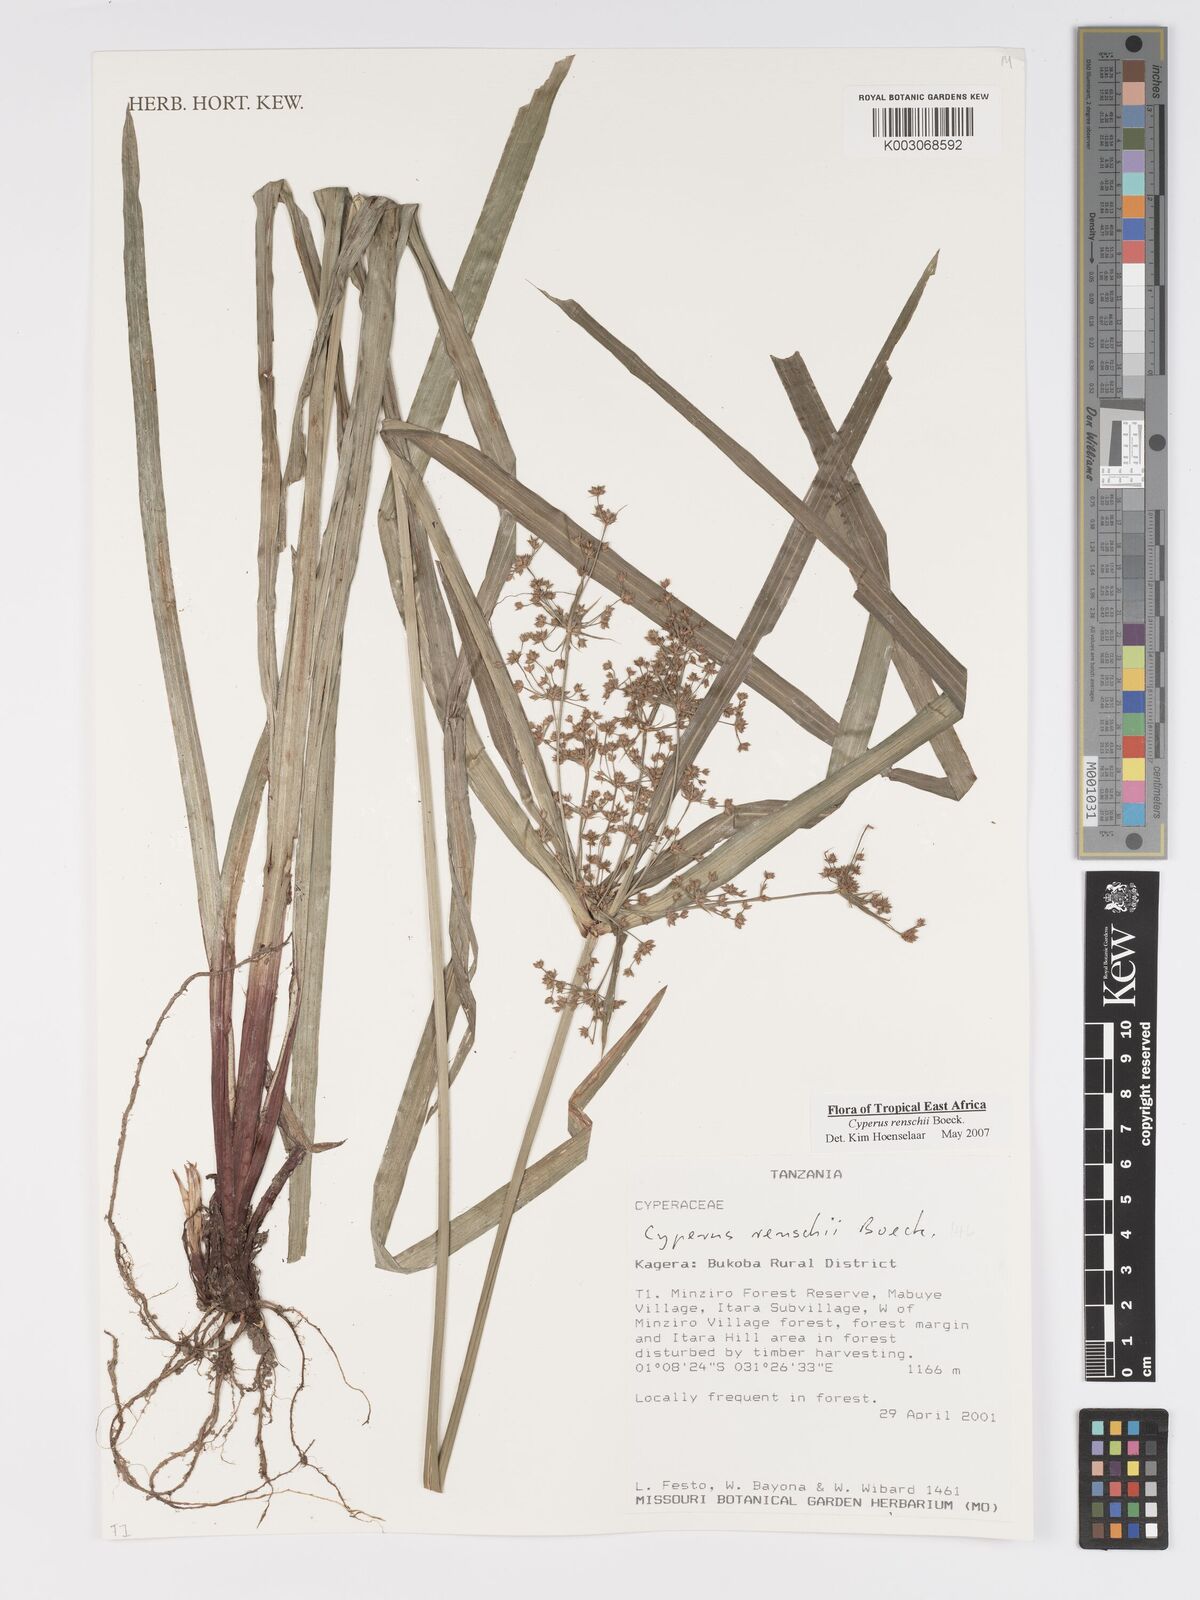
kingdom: Plantae
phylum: Tracheophyta
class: Liliopsida
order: Poales
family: Cyperaceae
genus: Cyperus
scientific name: Cyperus renschii
